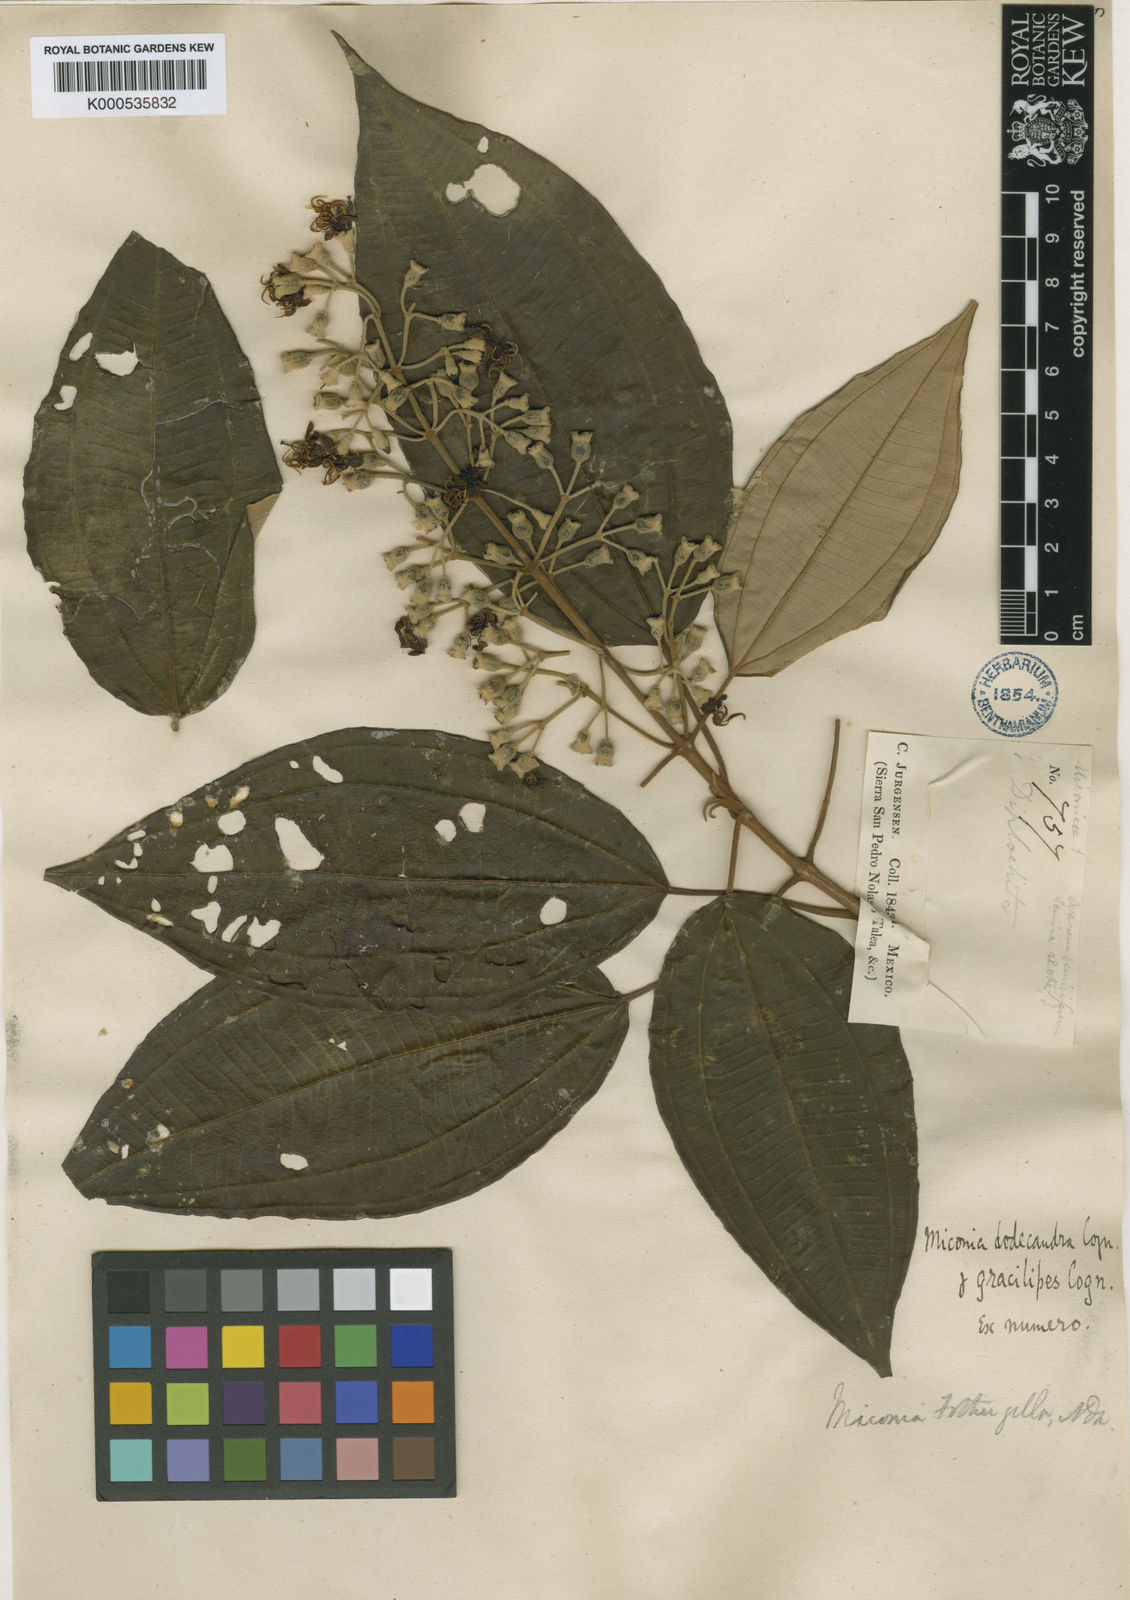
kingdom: Plantae
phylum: Tracheophyta
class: Magnoliopsida
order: Myrtales
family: Melastomataceae
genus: Miconia
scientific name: Miconia dodecandra
